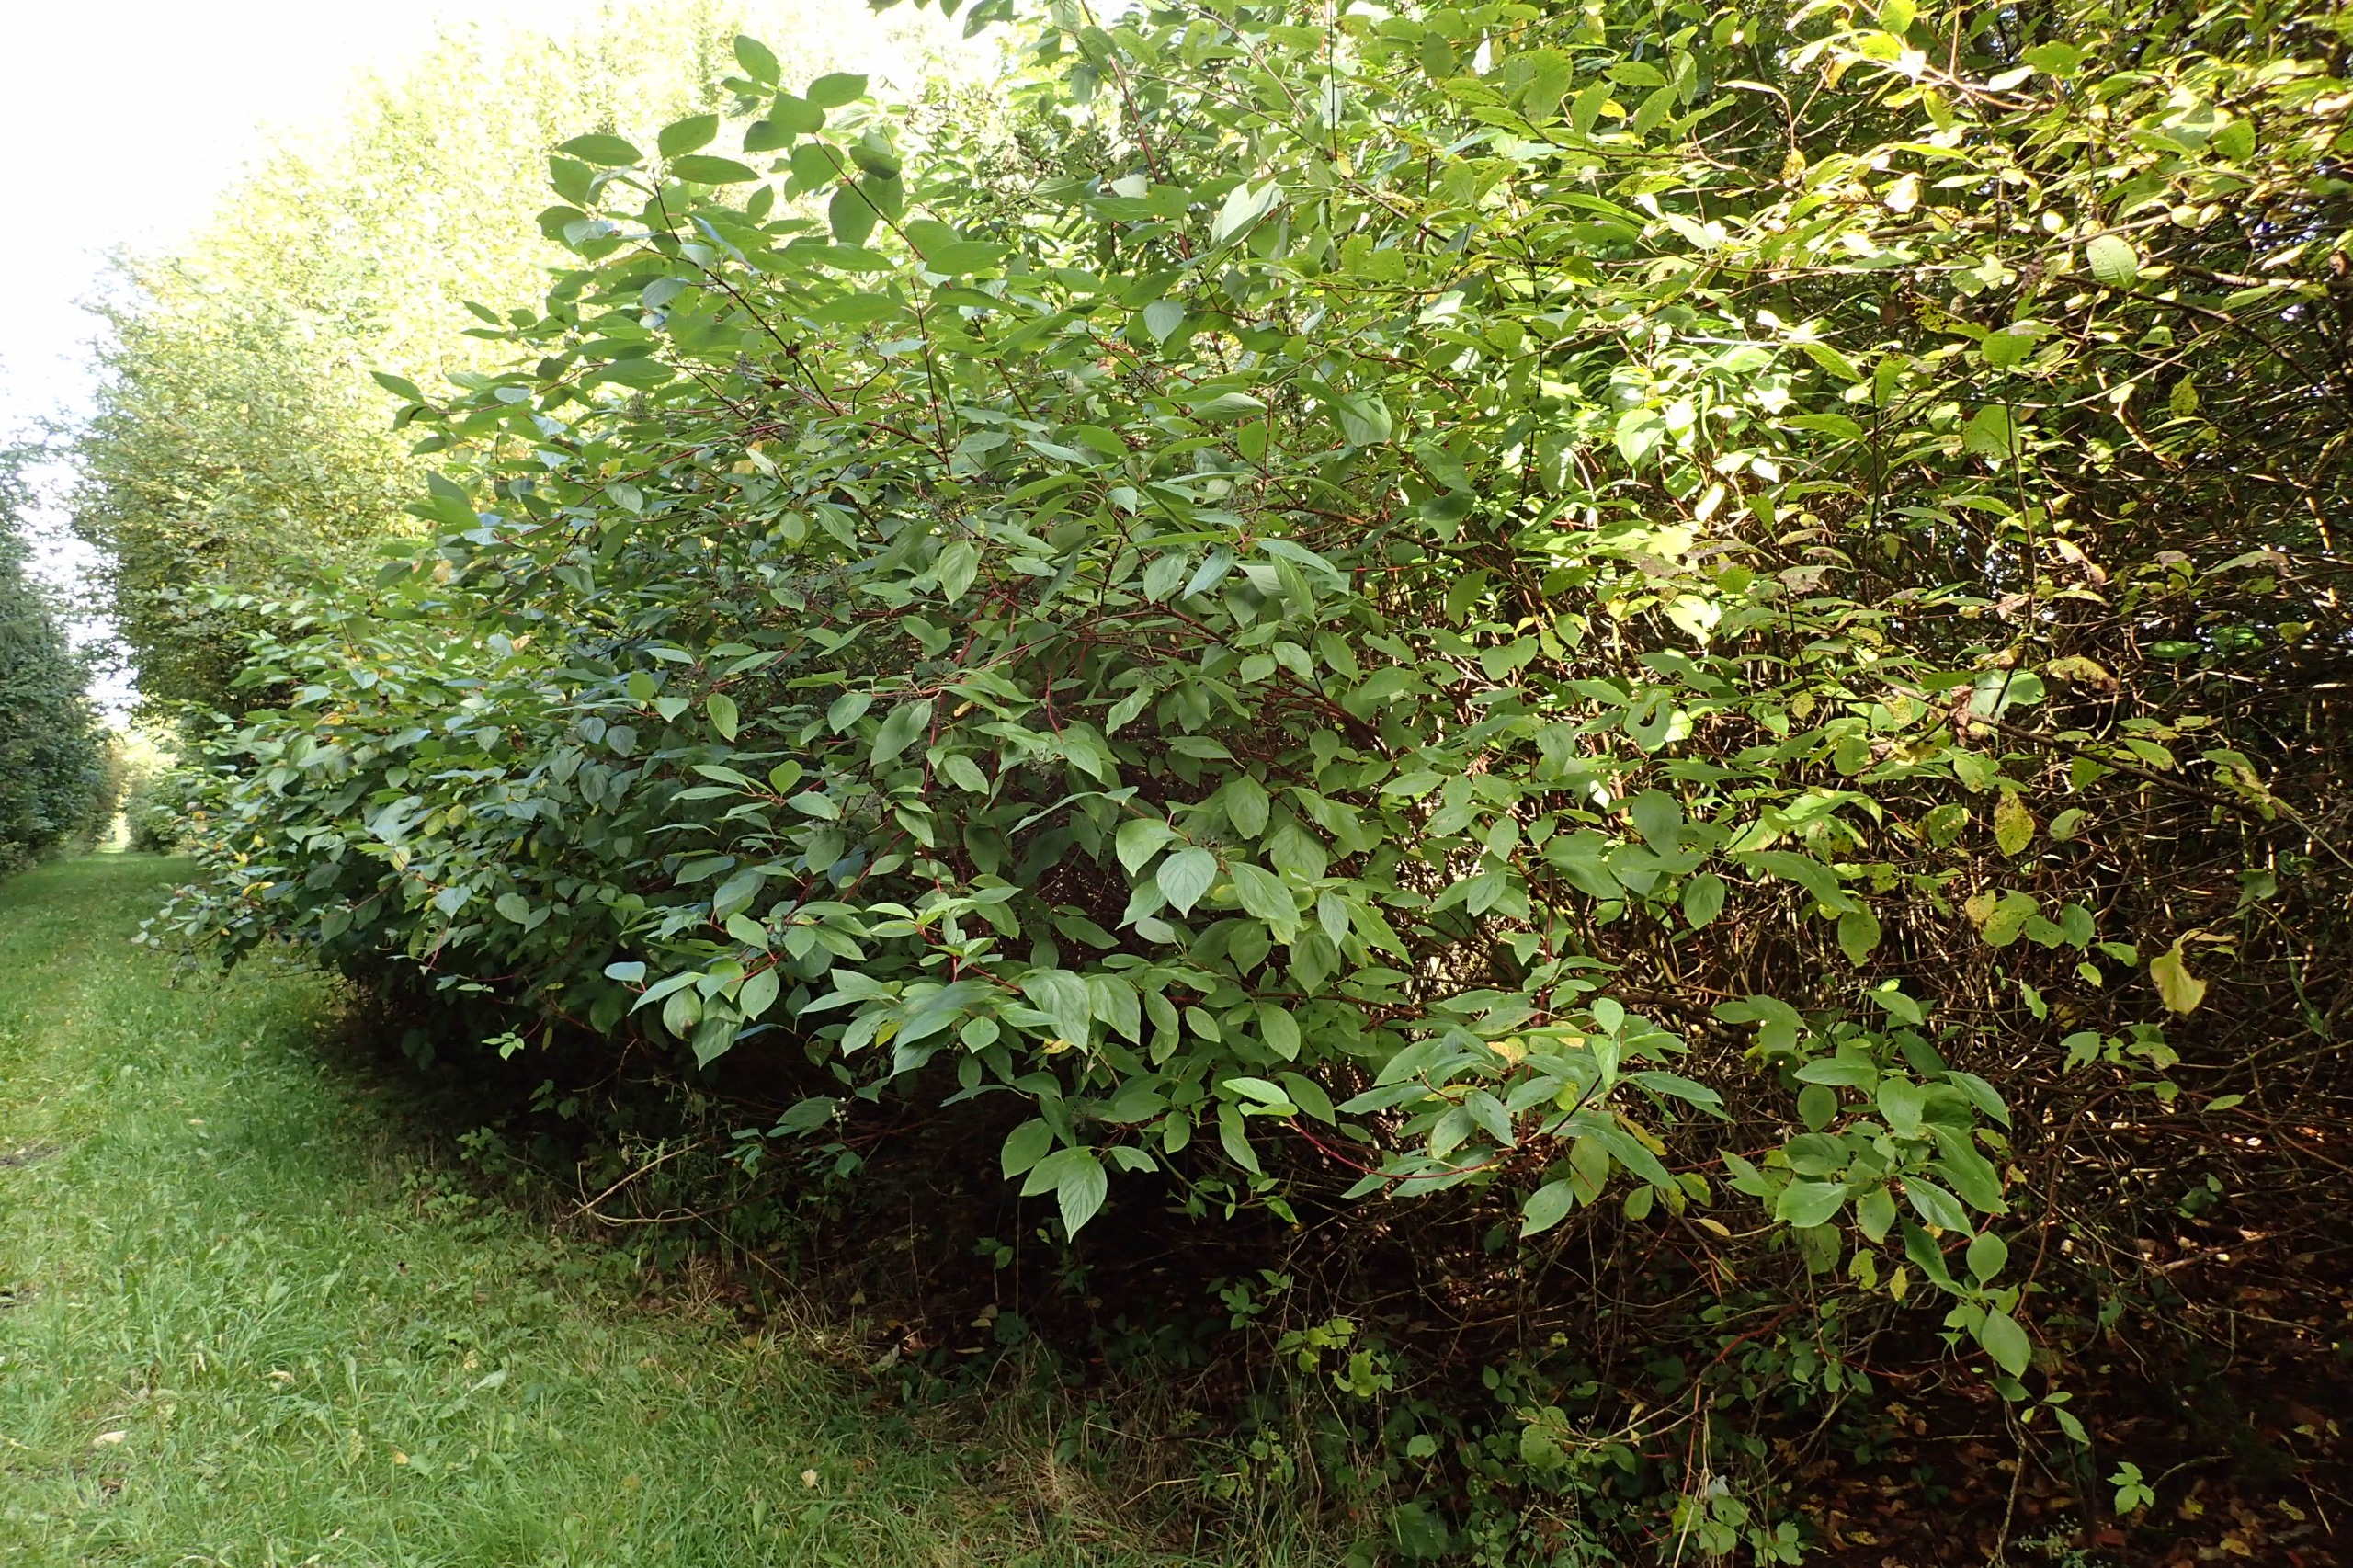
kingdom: Plantae
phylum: Tracheophyta
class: Magnoliopsida
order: Cornales
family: Cornaceae
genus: Cornus
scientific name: Cornus sericea
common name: Krybende kornel
